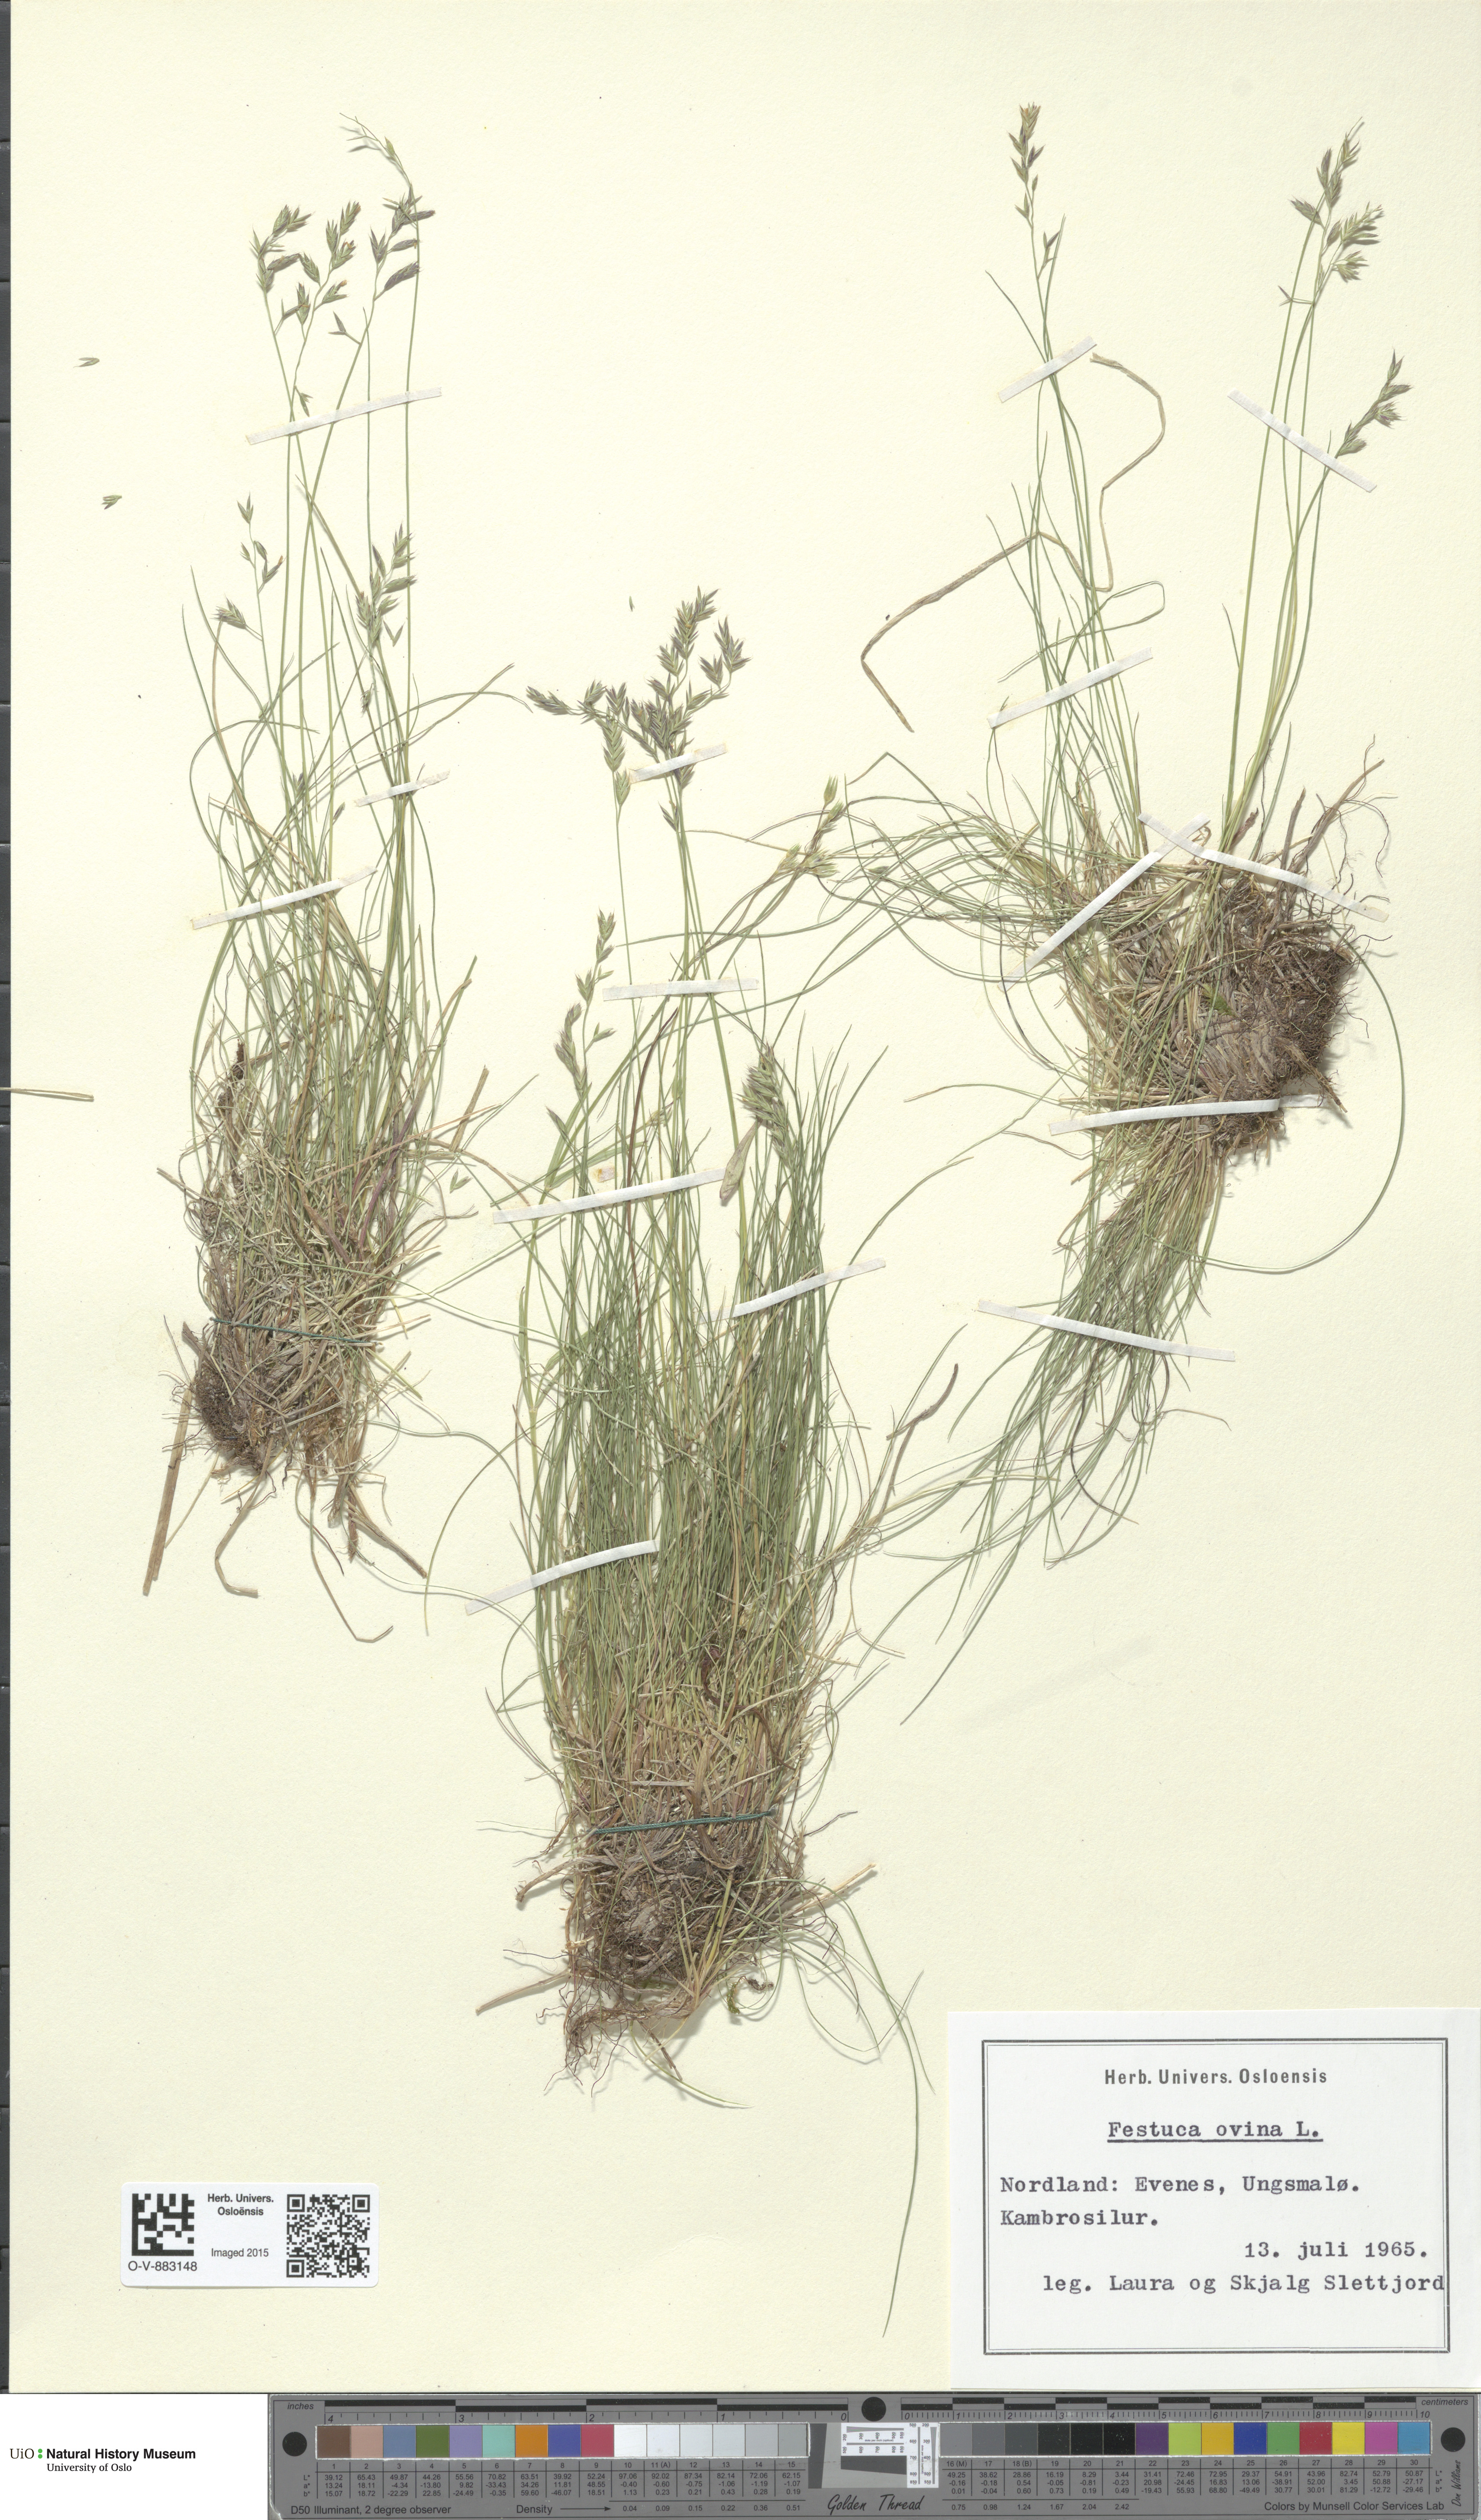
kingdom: Plantae
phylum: Tracheophyta
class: Liliopsida
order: Poales
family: Poaceae
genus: Festuca
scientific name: Festuca ovina
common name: Sheep fescue
